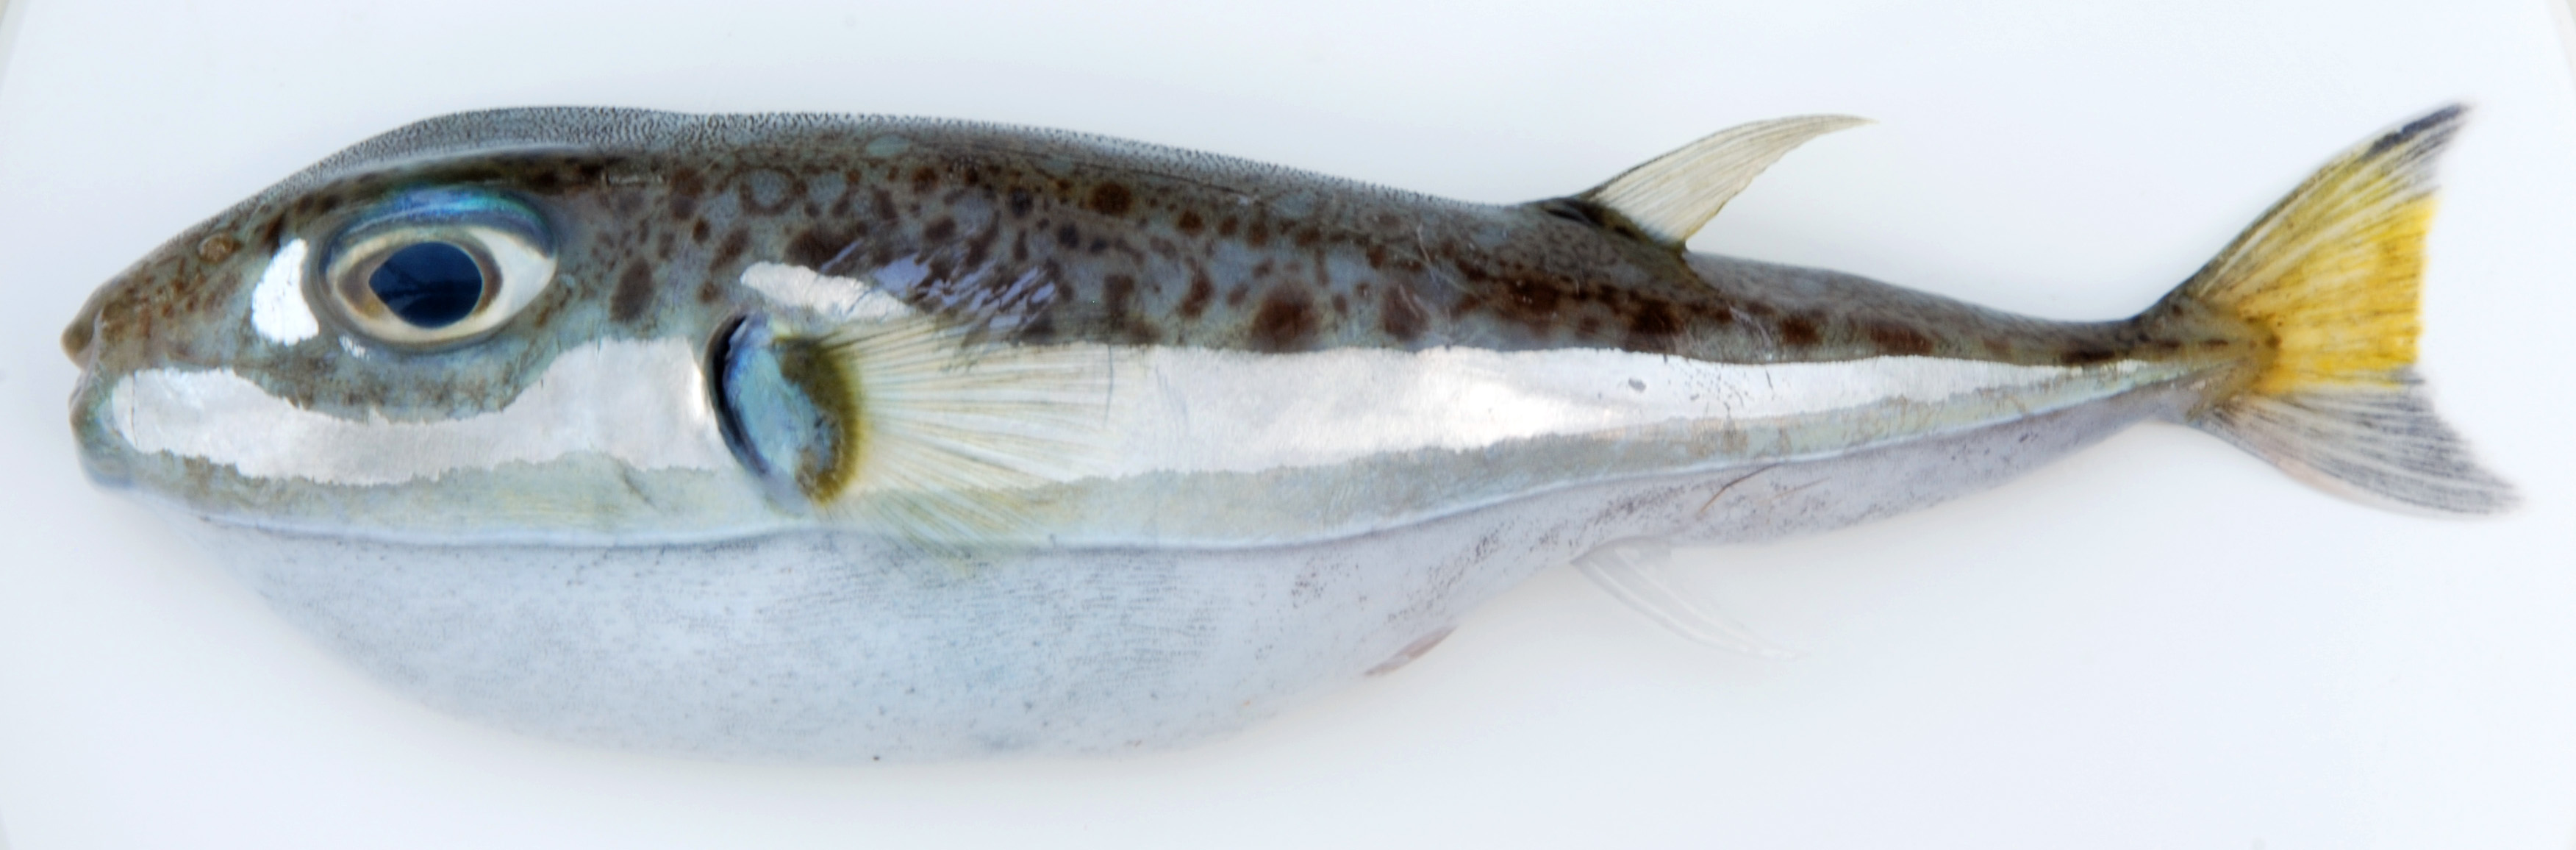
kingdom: Animalia
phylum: Chordata
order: Tetraodontiformes
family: Tetraodontidae
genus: Lagocephalus
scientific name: Lagocephalus suezensis
